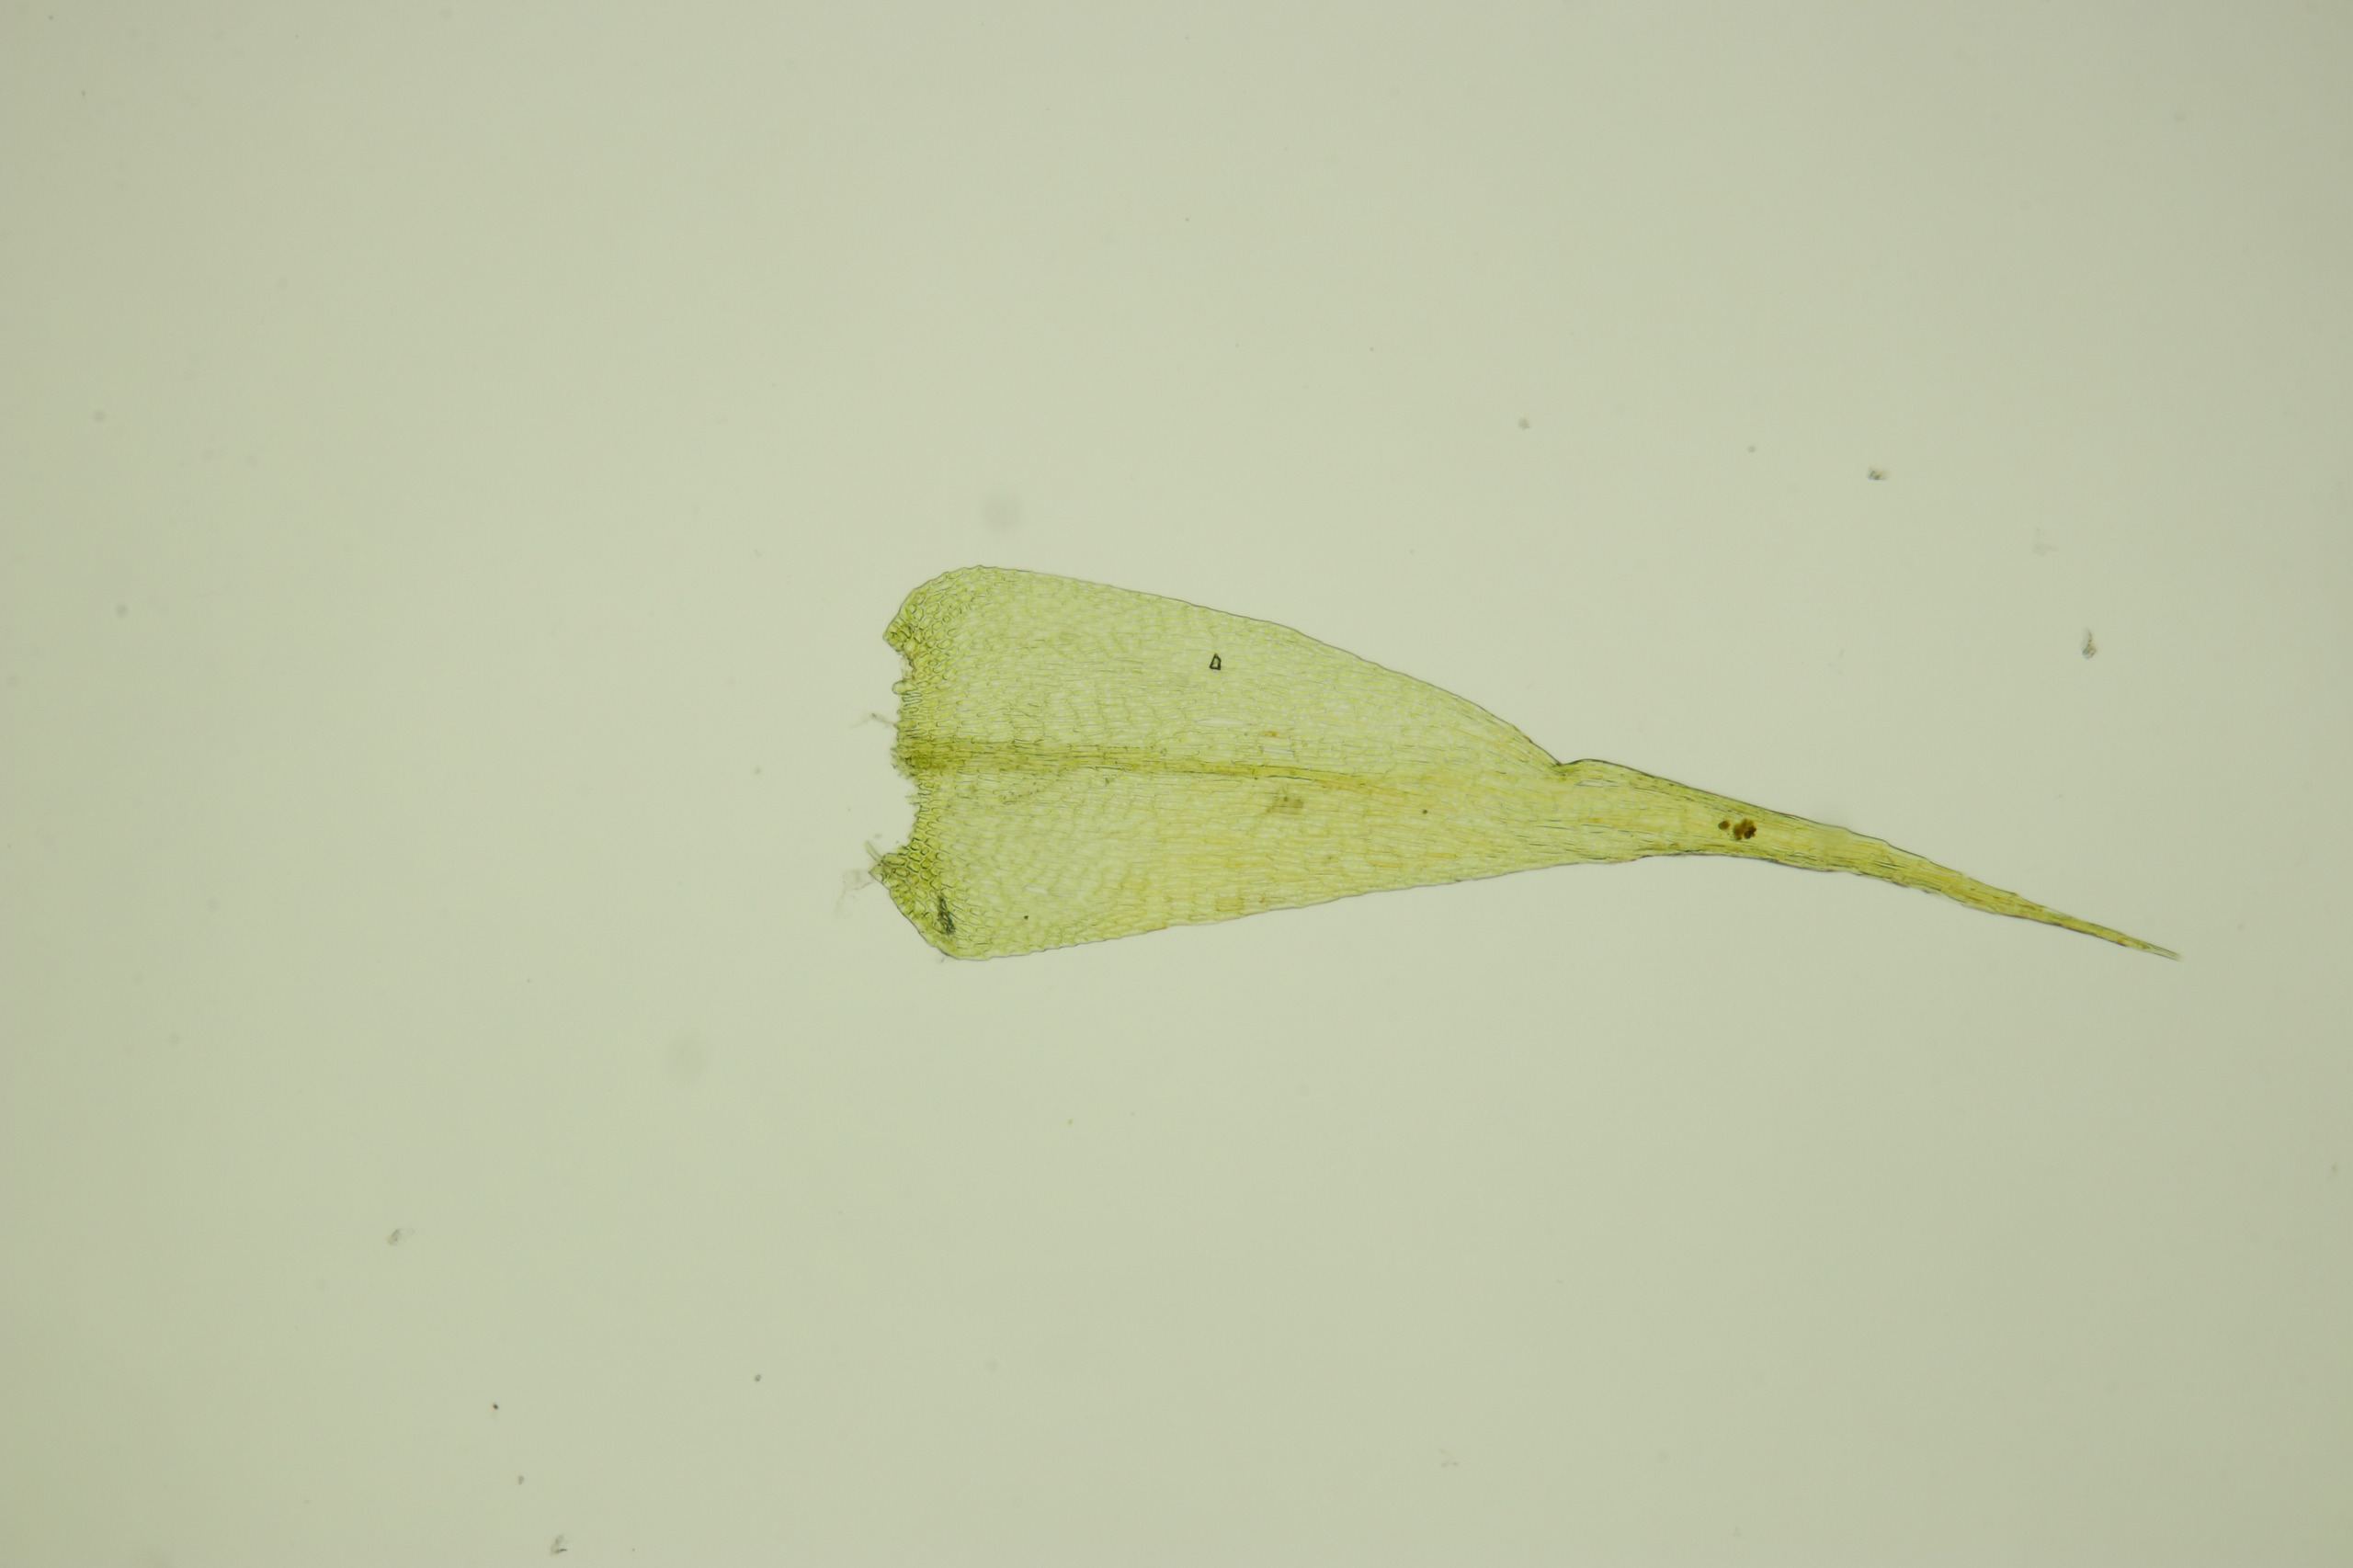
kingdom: Plantae
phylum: Bryophyta
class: Bryopsida
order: Hypnales
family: Amblystegiaceae
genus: Campylium
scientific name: Campylium chrysophyllum
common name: Tør guldstjernemos
